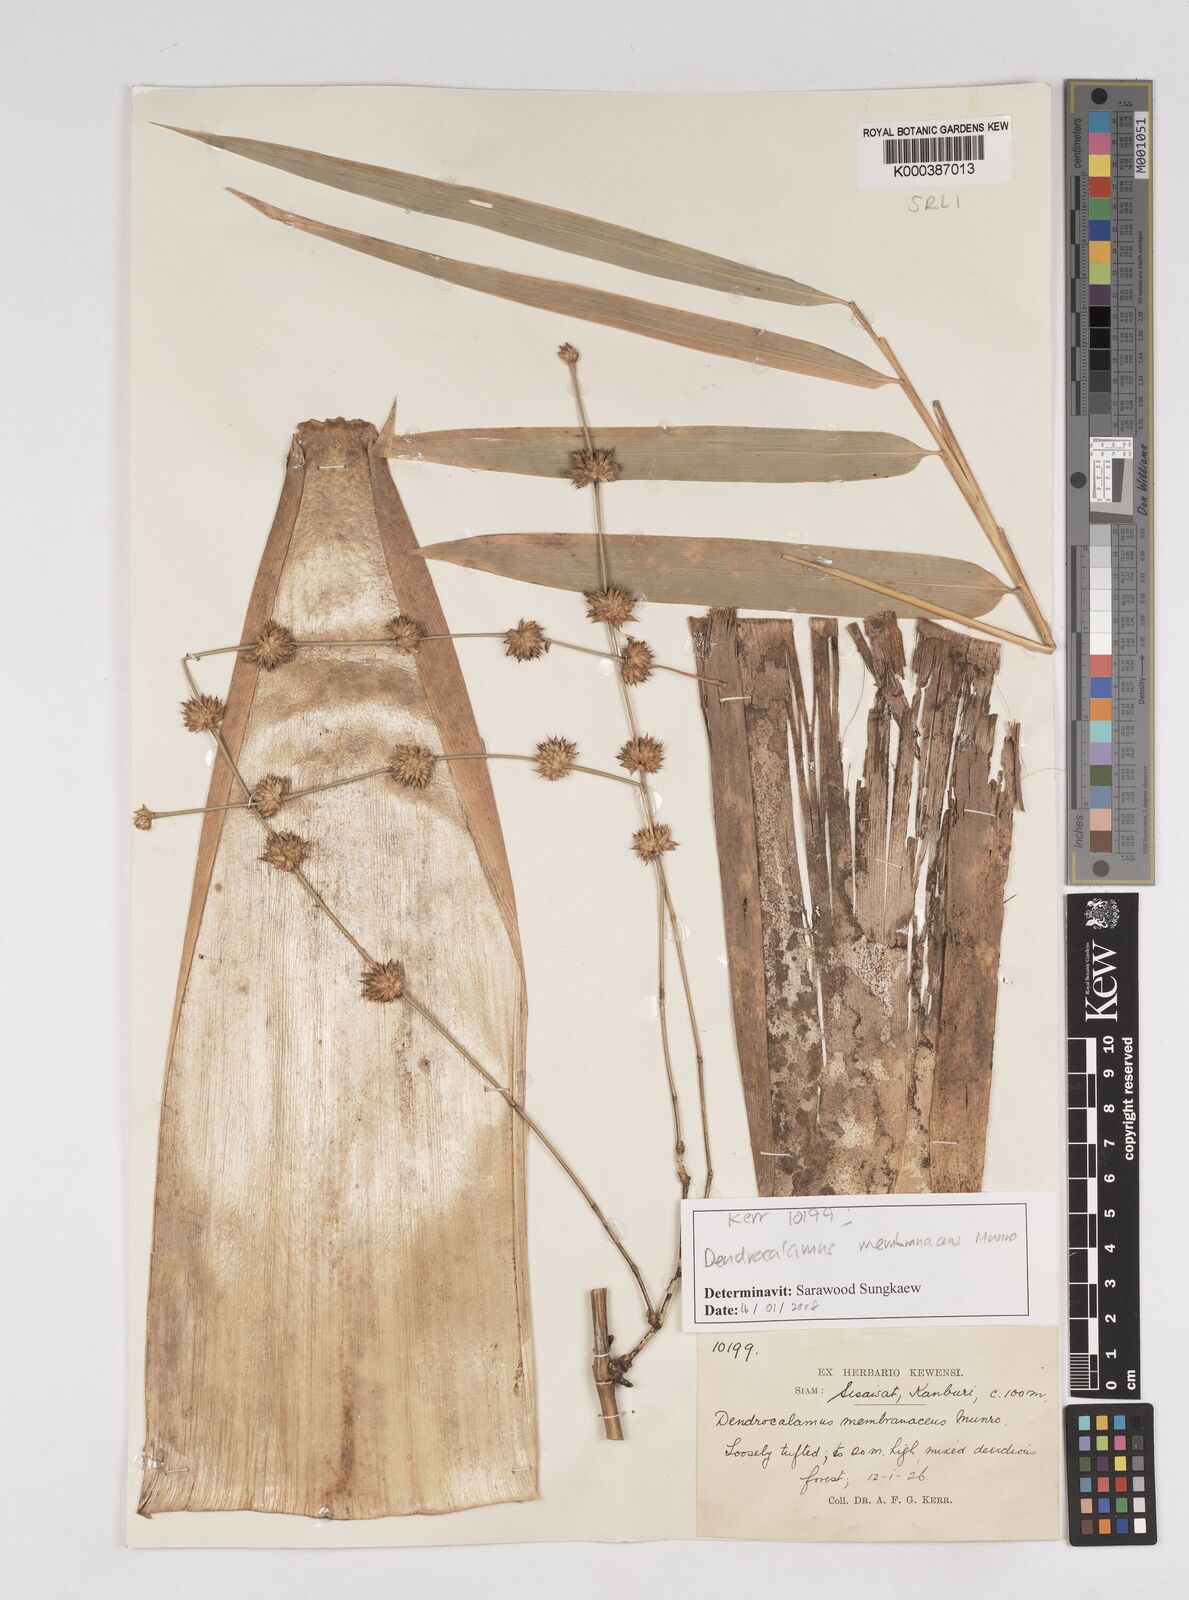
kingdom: Plantae
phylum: Tracheophyta
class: Liliopsida
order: Poales
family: Poaceae
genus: Dendrocalamus
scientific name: Dendrocalamus membranaceus
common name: White bamboo
